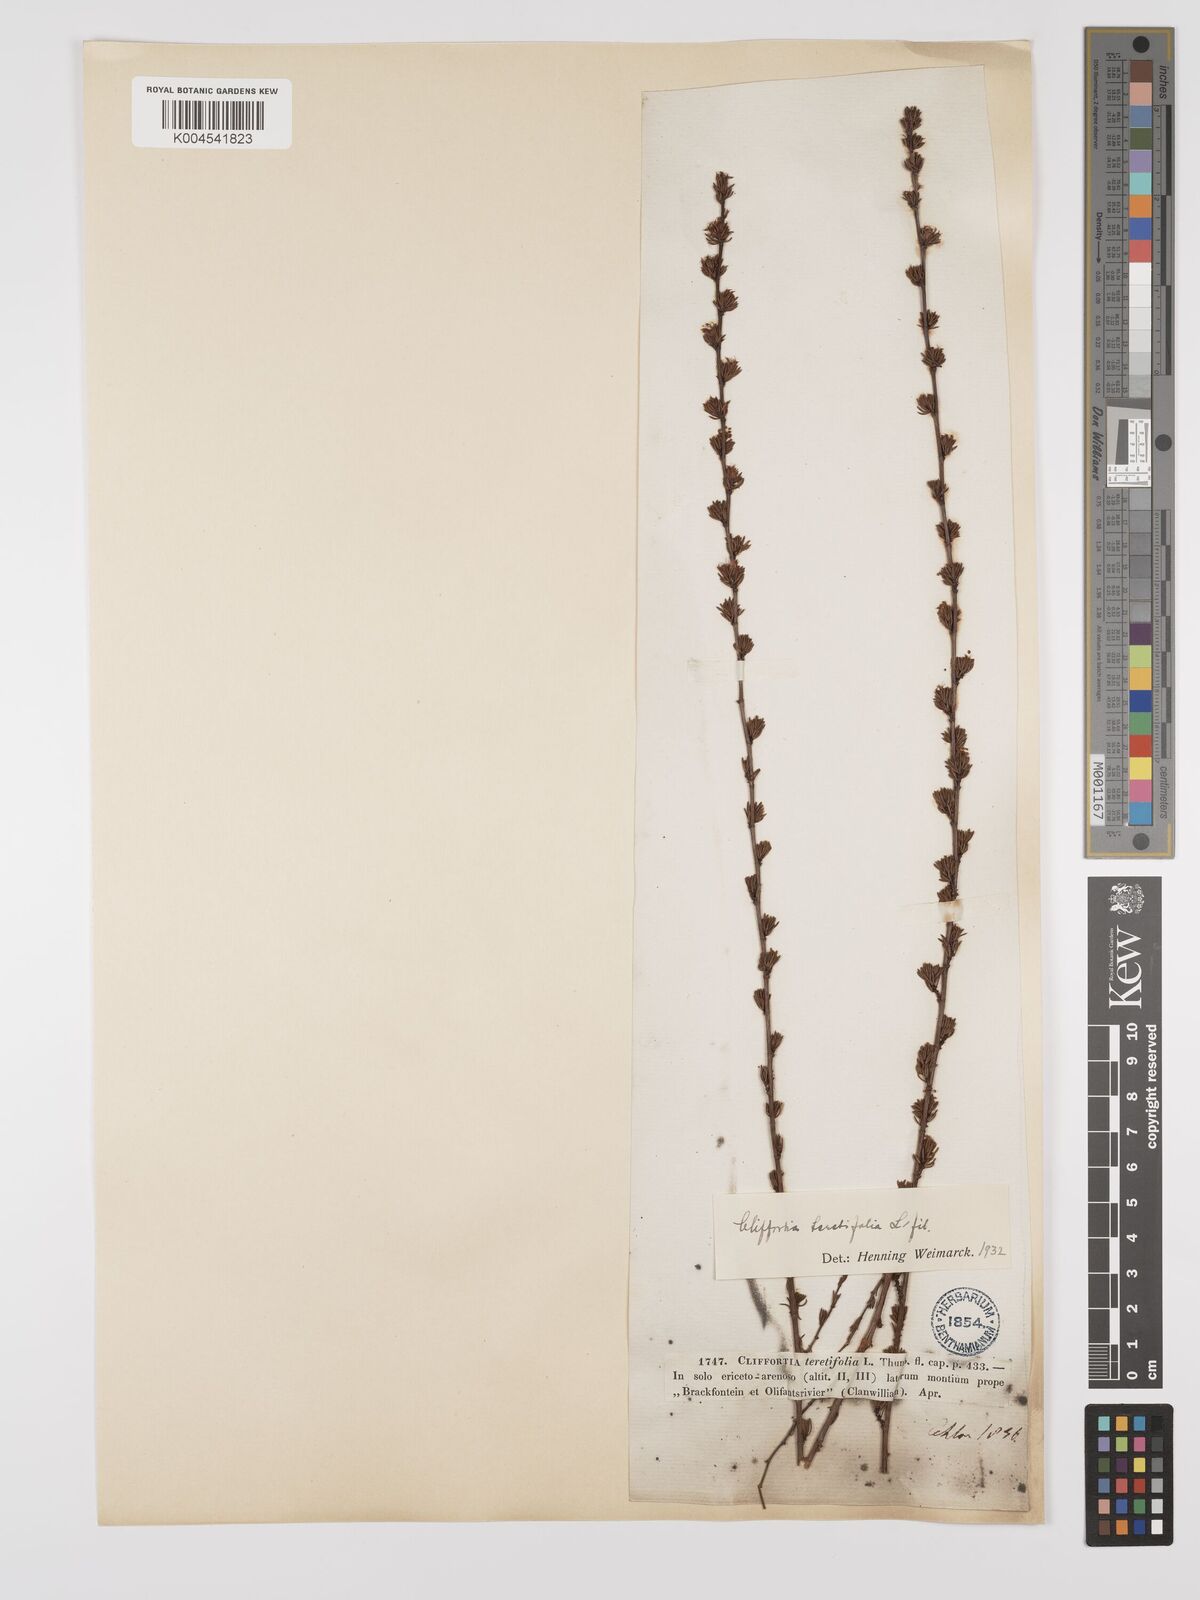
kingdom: Plantae
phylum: Tracheophyta
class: Magnoliopsida
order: Rosales
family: Rosaceae
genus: Cliffortia
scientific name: Cliffortia teretifolia
